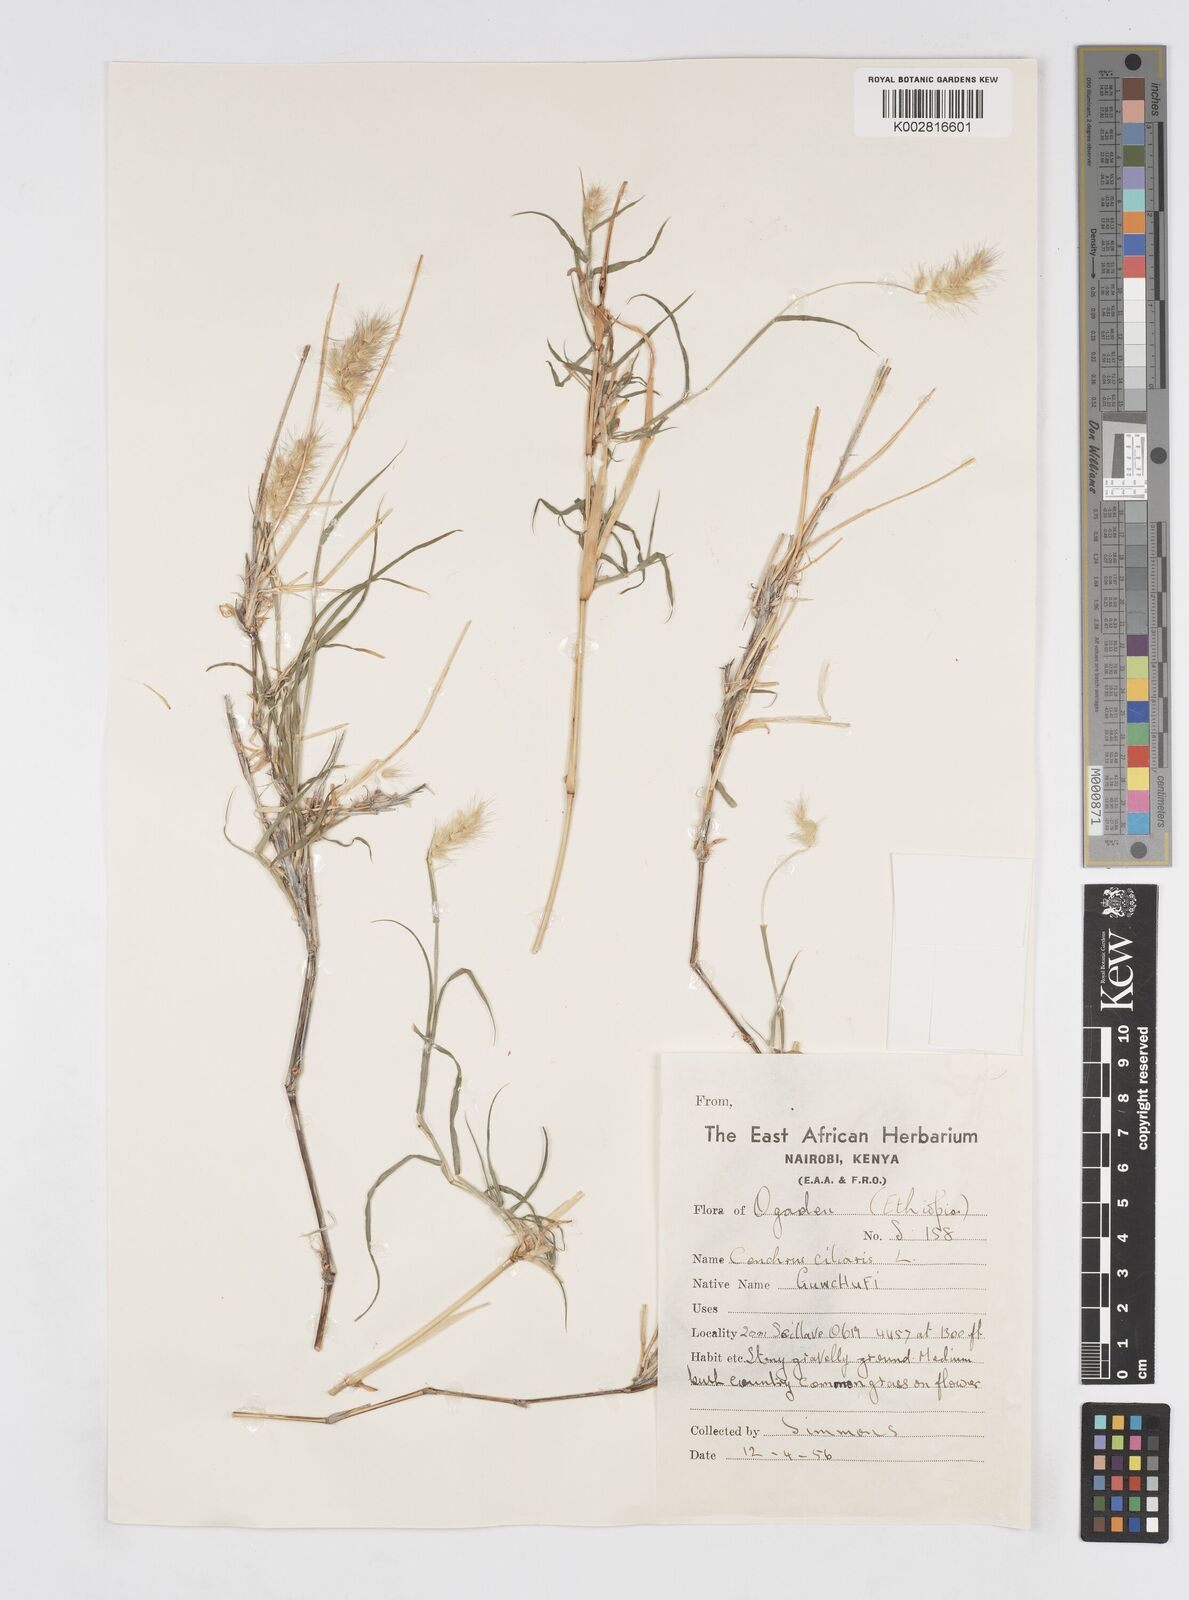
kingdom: Plantae
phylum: Tracheophyta
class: Liliopsida
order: Poales
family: Poaceae
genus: Cenchrus
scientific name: Cenchrus ciliaris
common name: Buffelgrass
